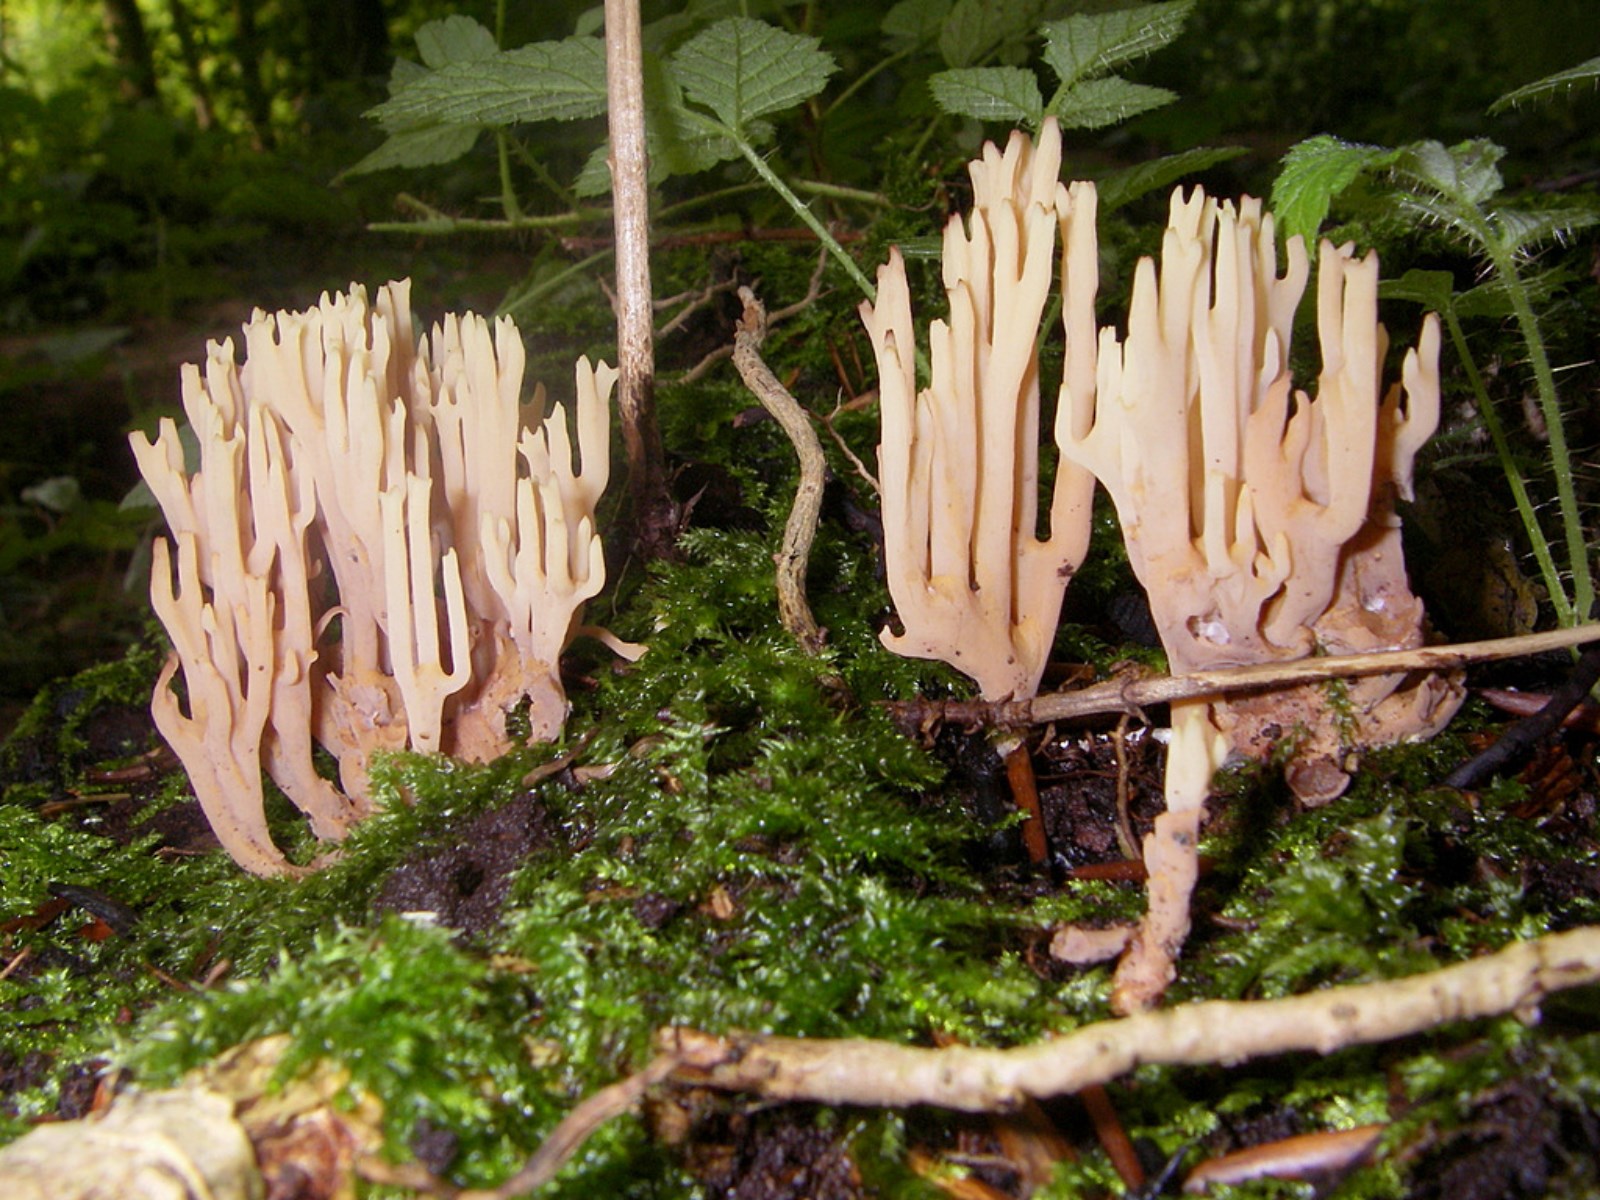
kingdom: Fungi
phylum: Basidiomycota
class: Agaricomycetes
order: Gomphales
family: Gomphaceae
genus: Ramaria
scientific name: Ramaria stricta
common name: rank koralsvamp
